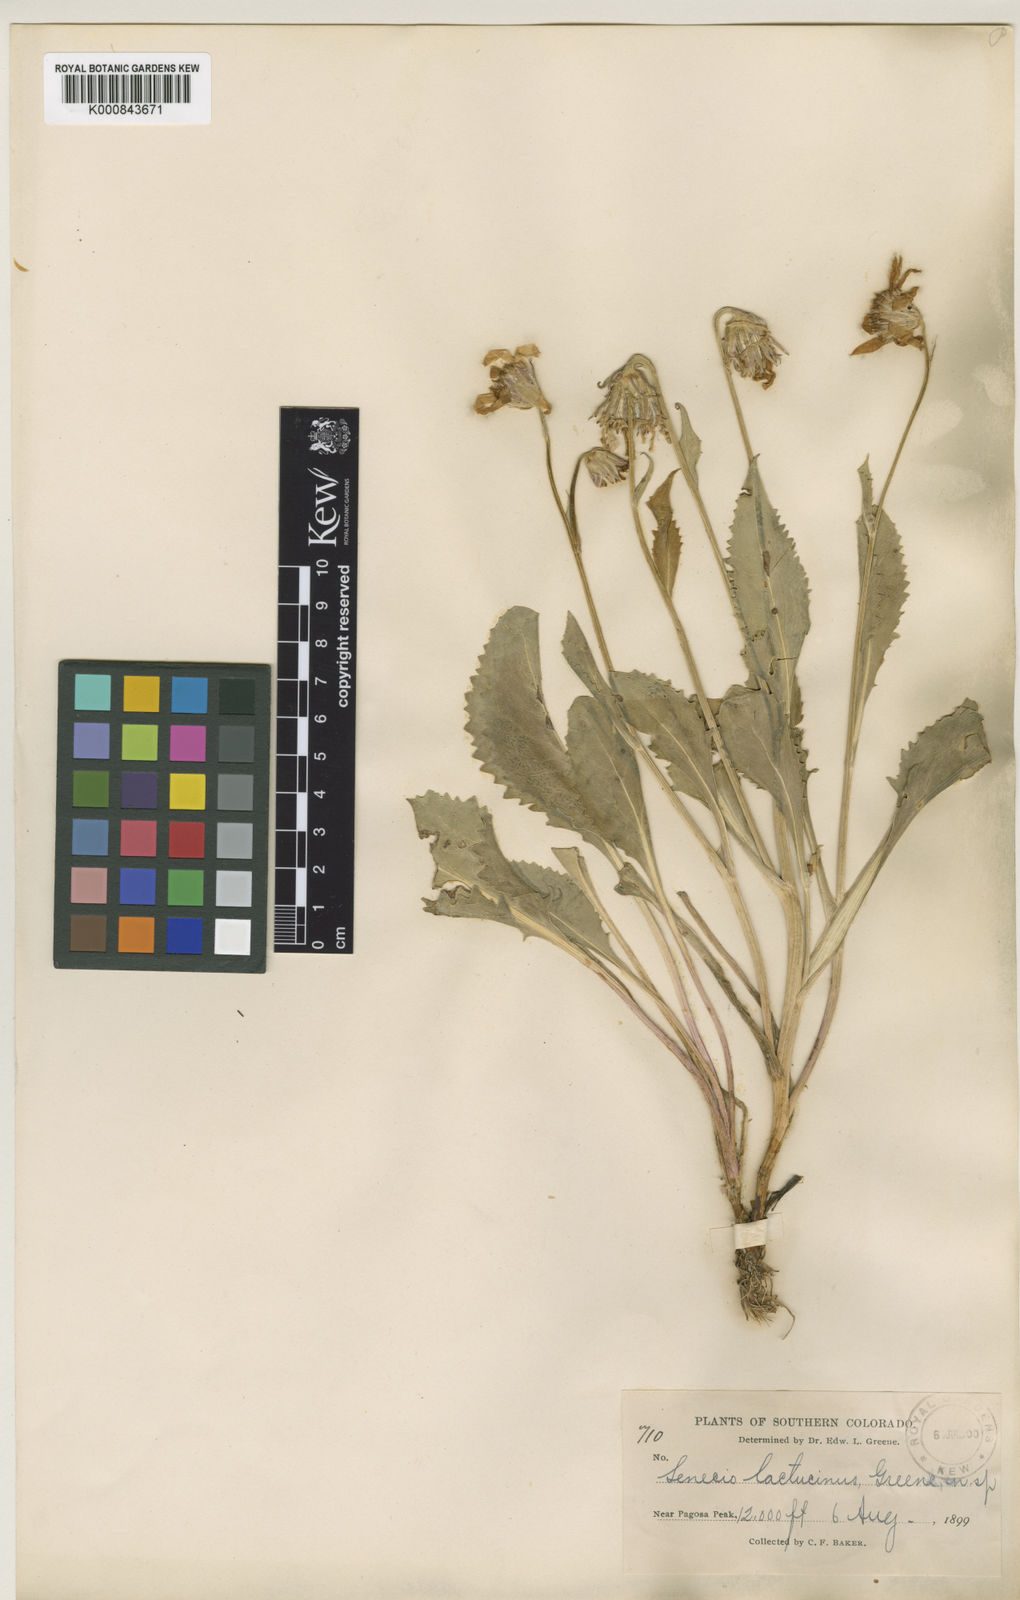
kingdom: Plantae
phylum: Tracheophyta
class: Magnoliopsida
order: Asterales
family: Asteraceae
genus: Senecio
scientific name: Senecio amplectens
